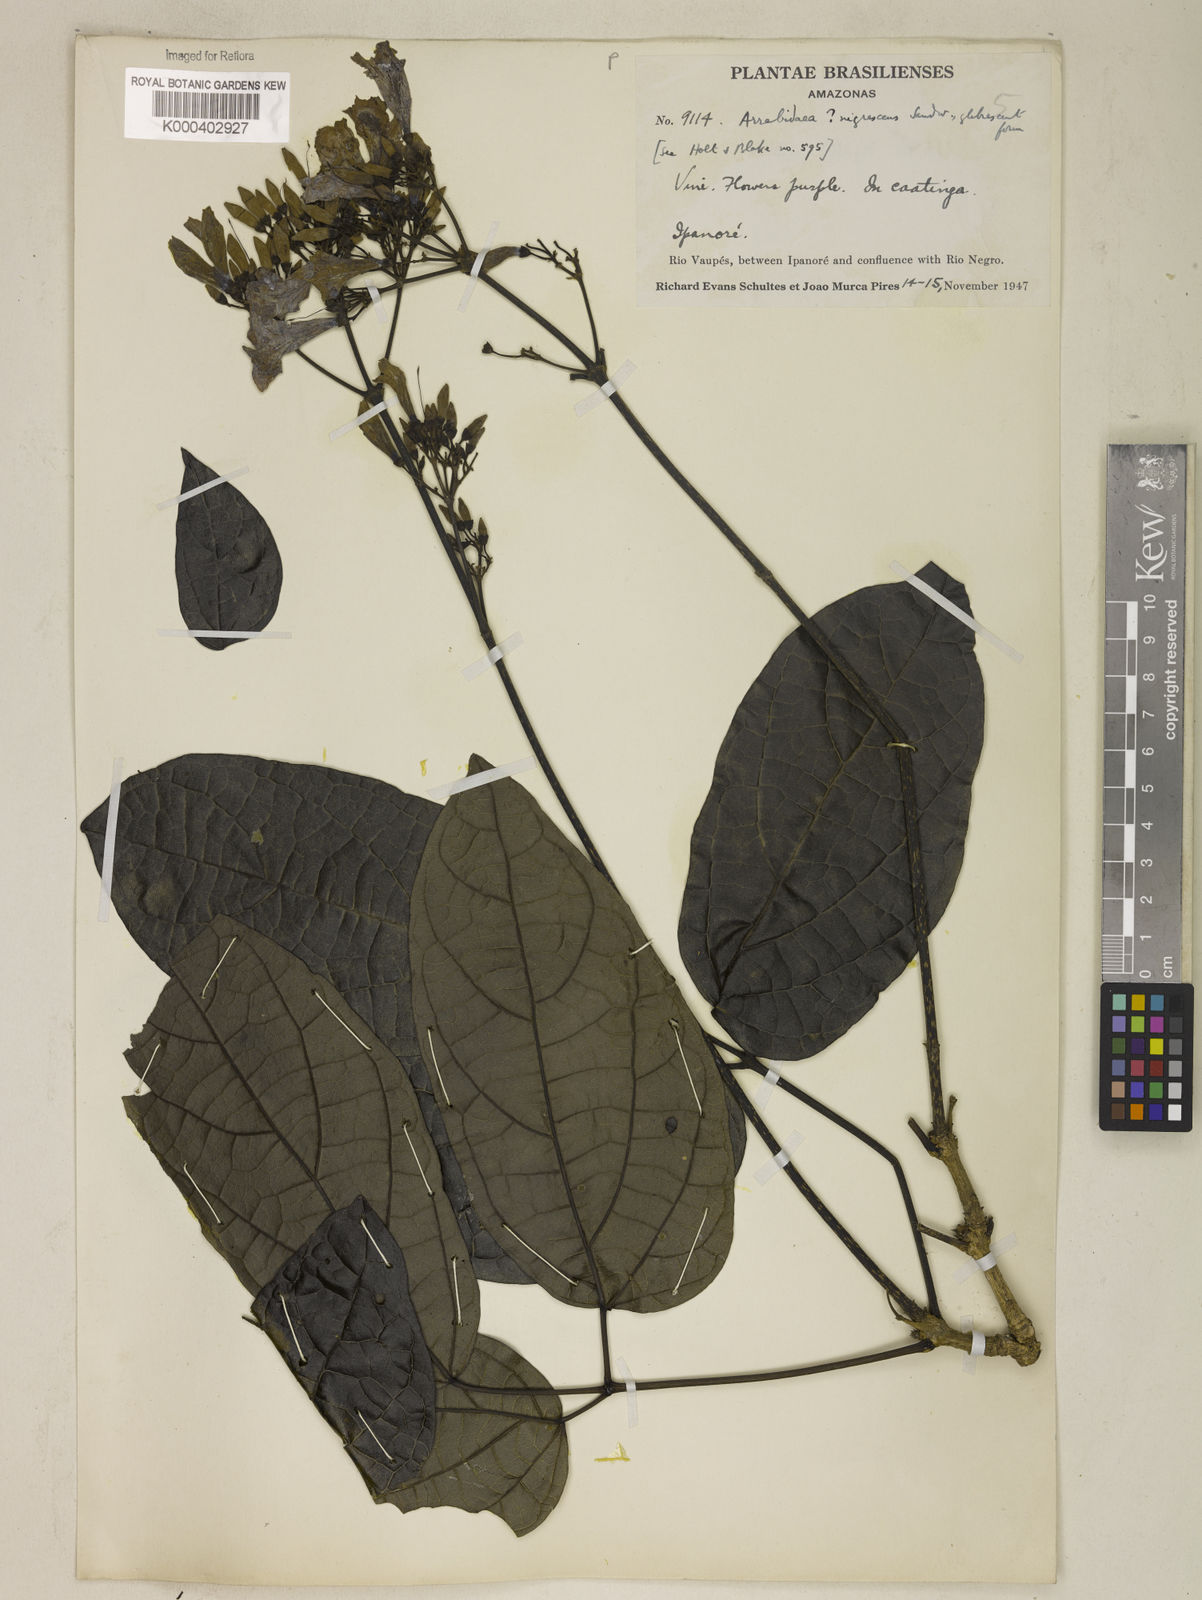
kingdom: Plantae
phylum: Tracheophyta
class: Magnoliopsida
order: Lamiales
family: Bignoniaceae
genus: Fridericia
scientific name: Fridericia nigrescens
